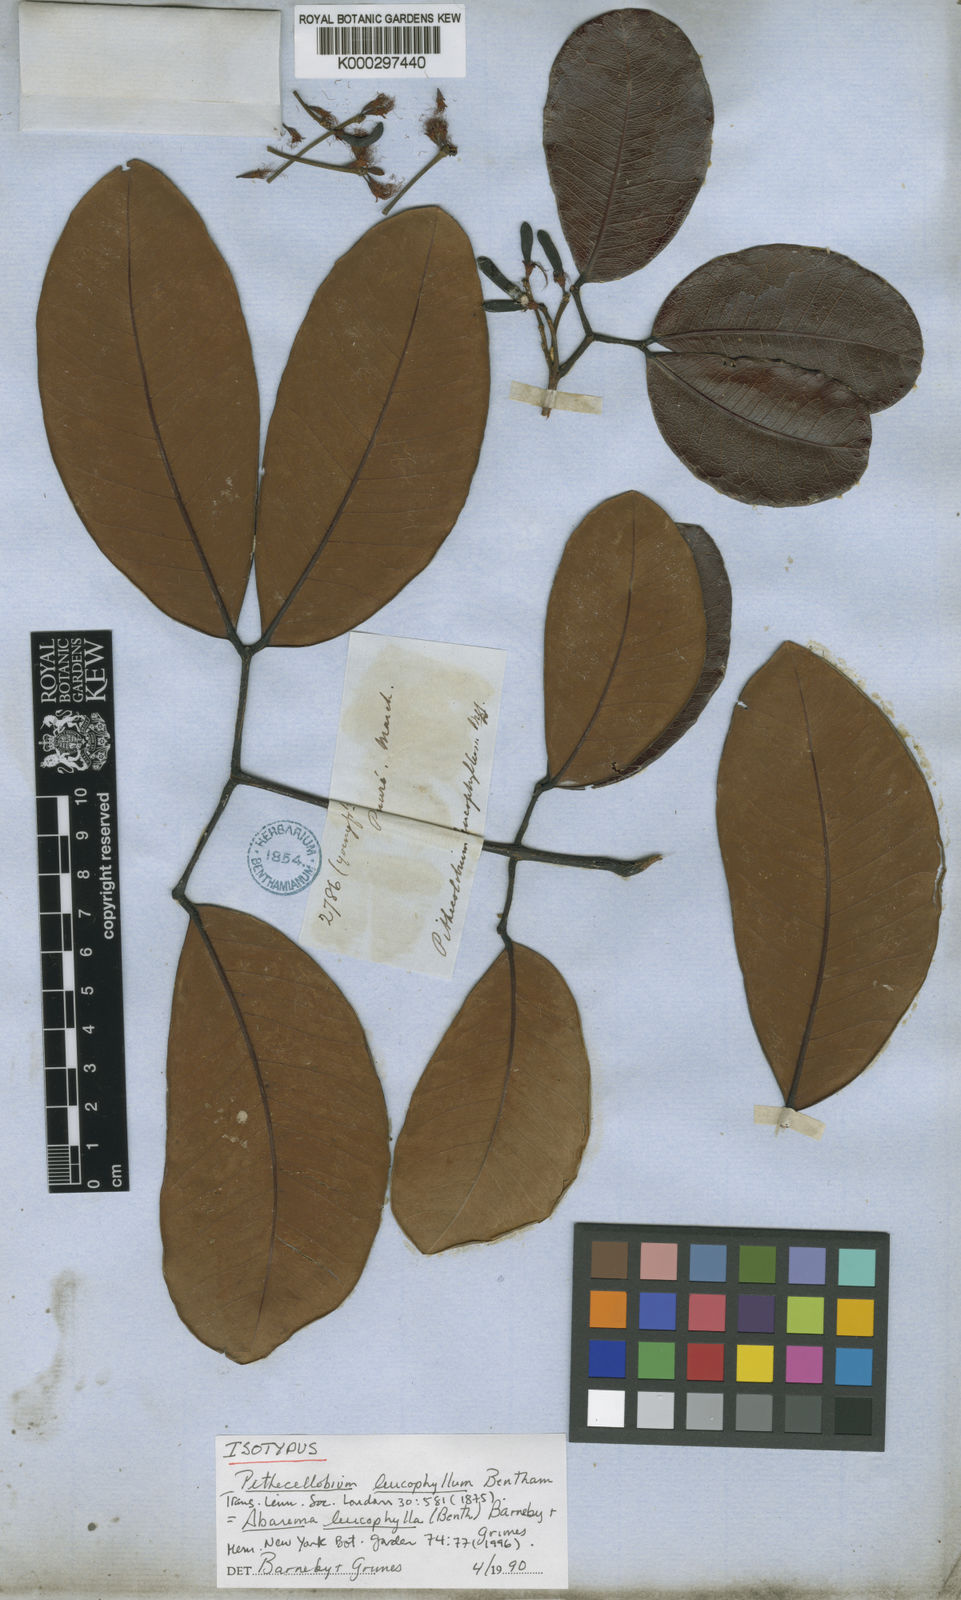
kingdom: Plantae
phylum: Tracheophyta
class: Magnoliopsida
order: Fabales
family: Fabaceae
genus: Jupunba
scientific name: Jupunba leucophylla
